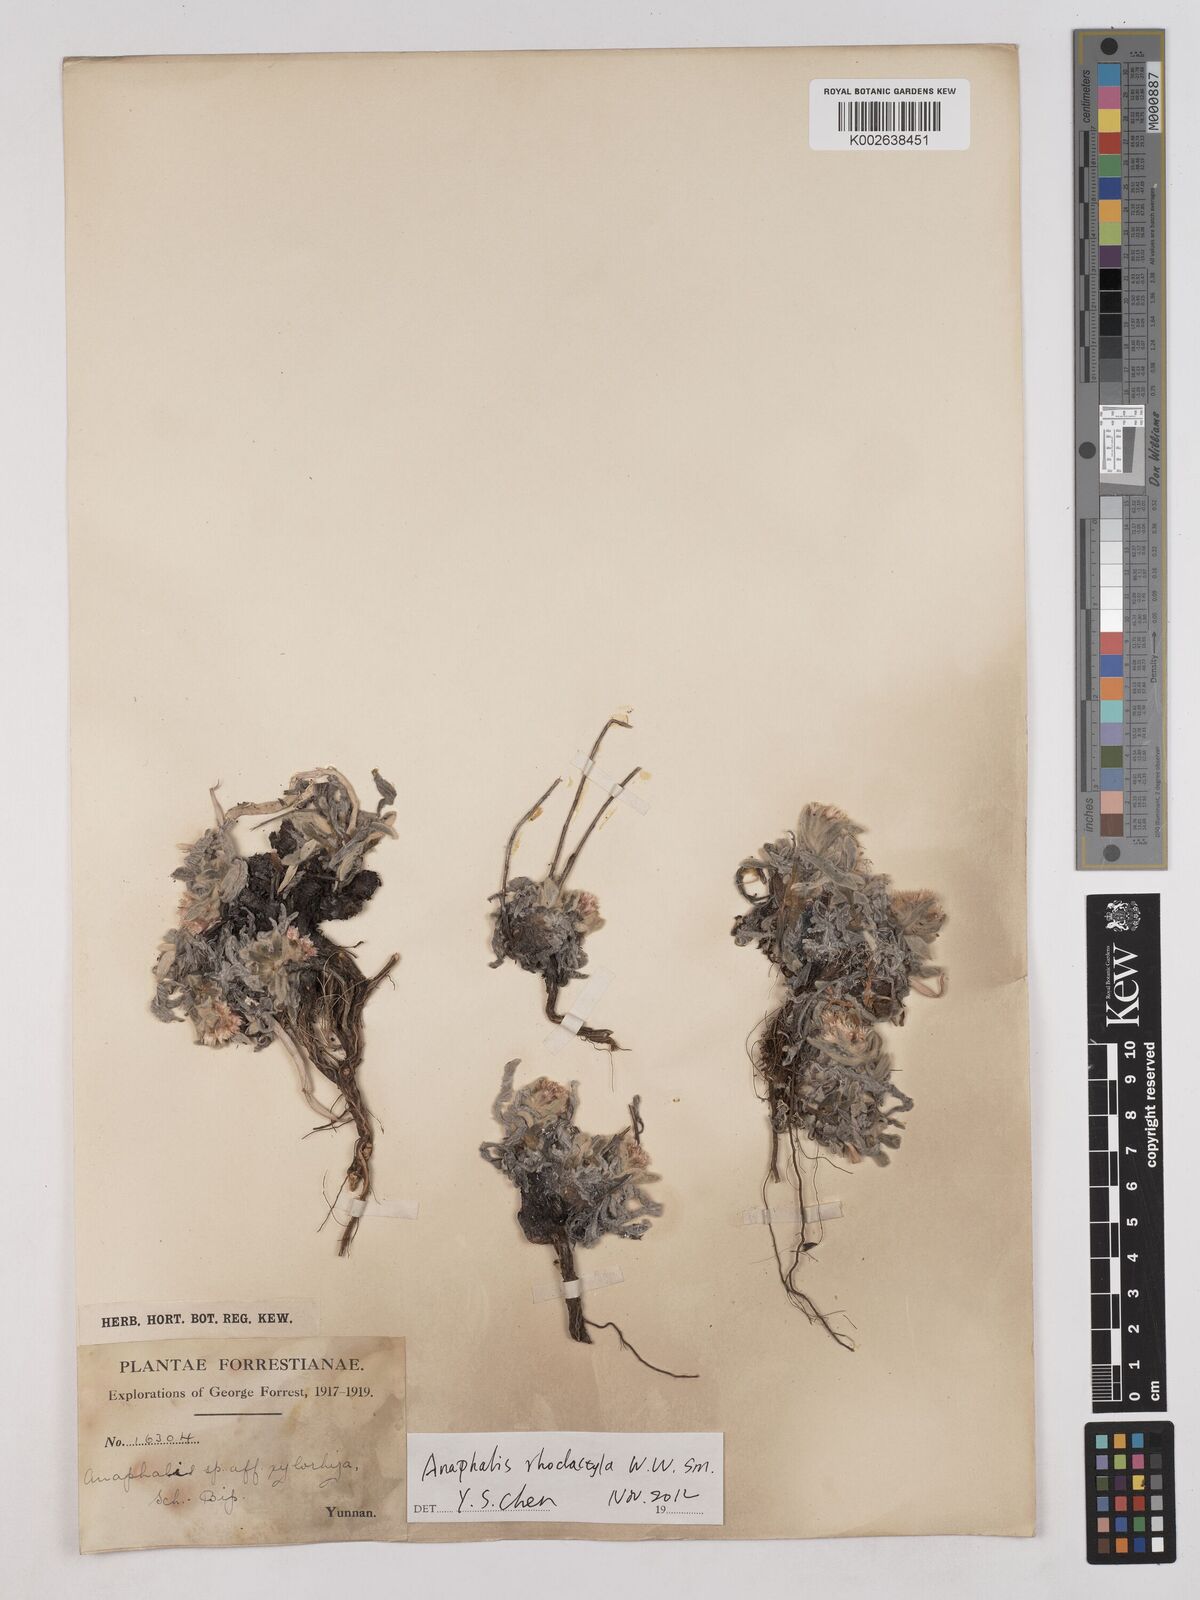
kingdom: Plantae
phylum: Tracheophyta
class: Magnoliopsida
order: Asterales
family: Asteraceae
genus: Anaphalis
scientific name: Anaphalis rhododactyla
